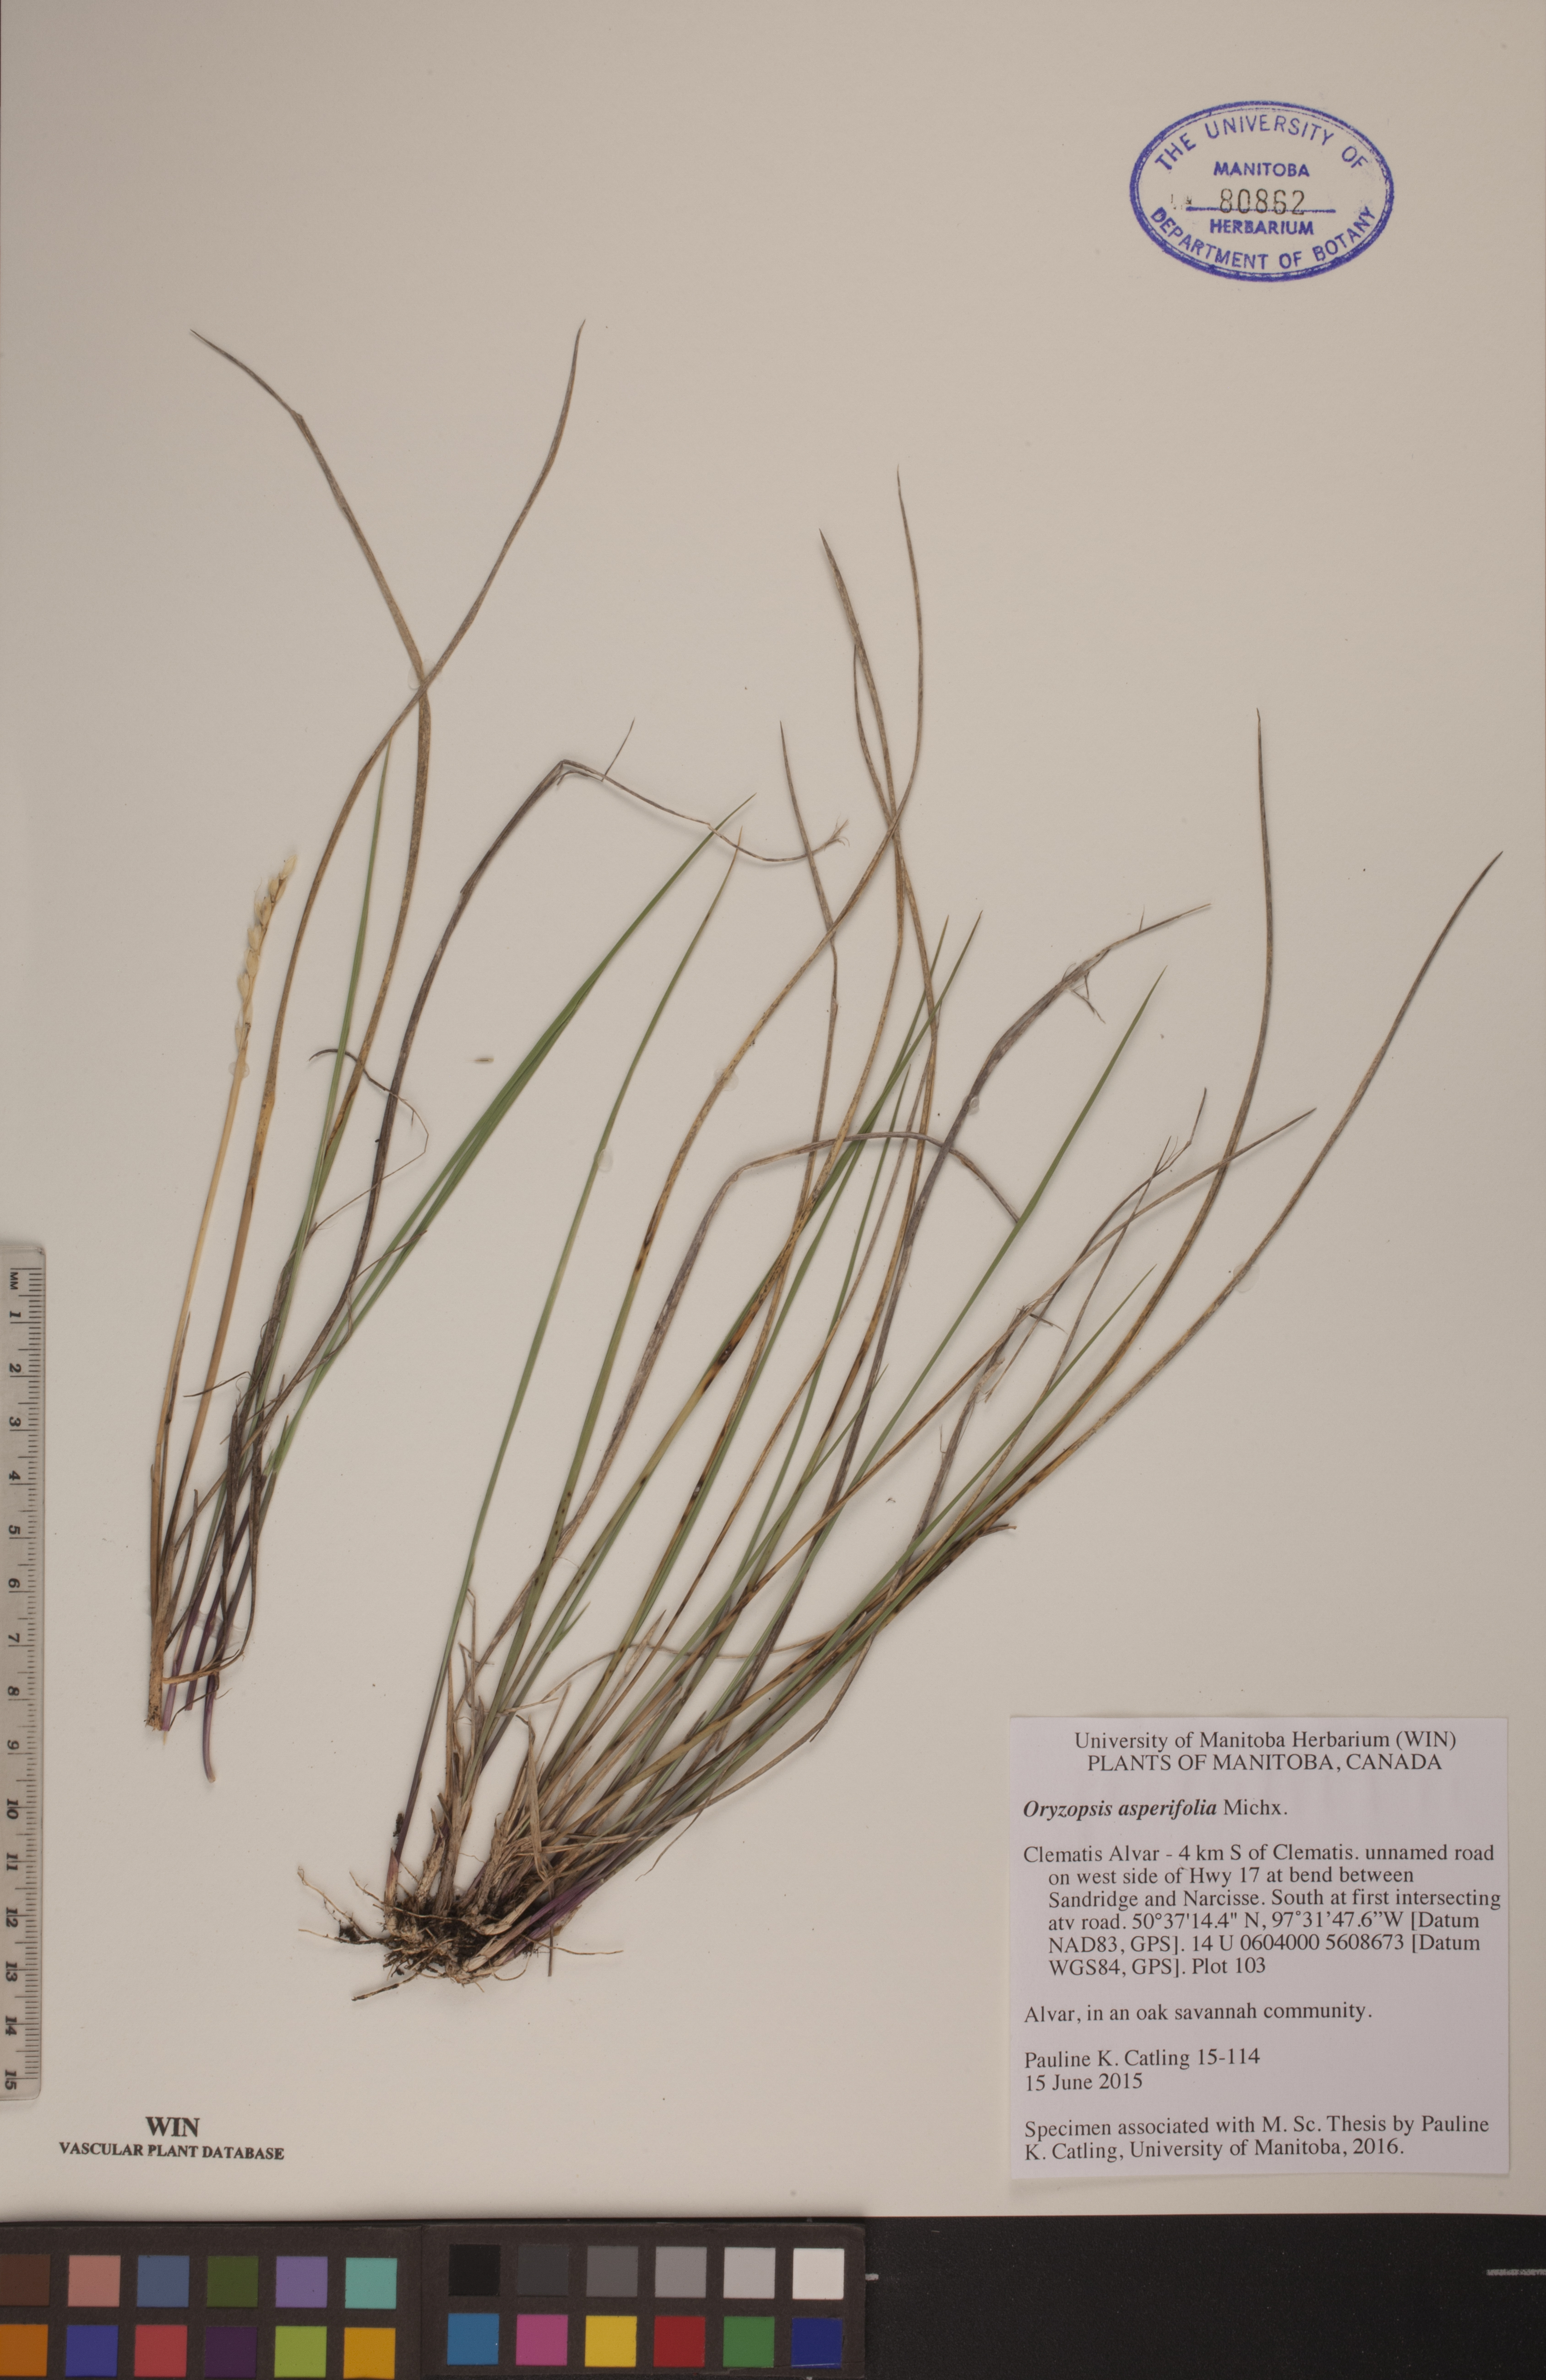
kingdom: Plantae
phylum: Tracheophyta
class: Liliopsida
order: Poales
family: Poaceae
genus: Oryzopsis
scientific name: Oryzopsis asperifolia
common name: Rough-leaved mountain rice
